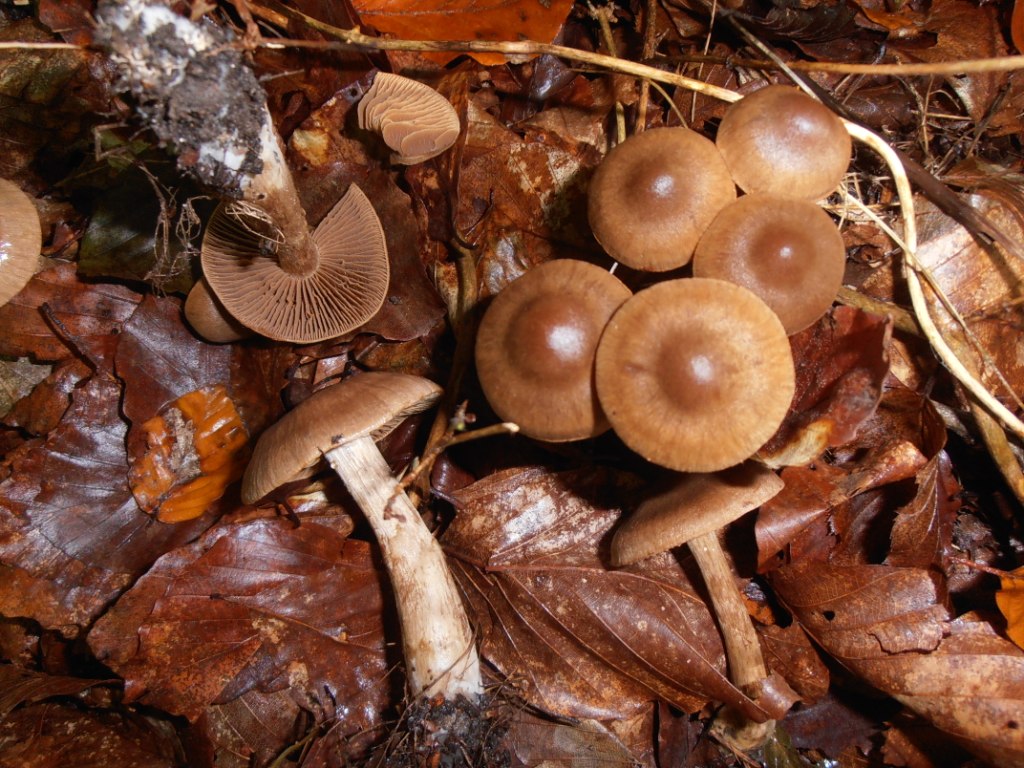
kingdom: Fungi
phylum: Basidiomycota
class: Agaricomycetes
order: Agaricales
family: Cortinariaceae
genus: Cortinarius
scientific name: Cortinarius raphanoides
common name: ræddike-slørhat
